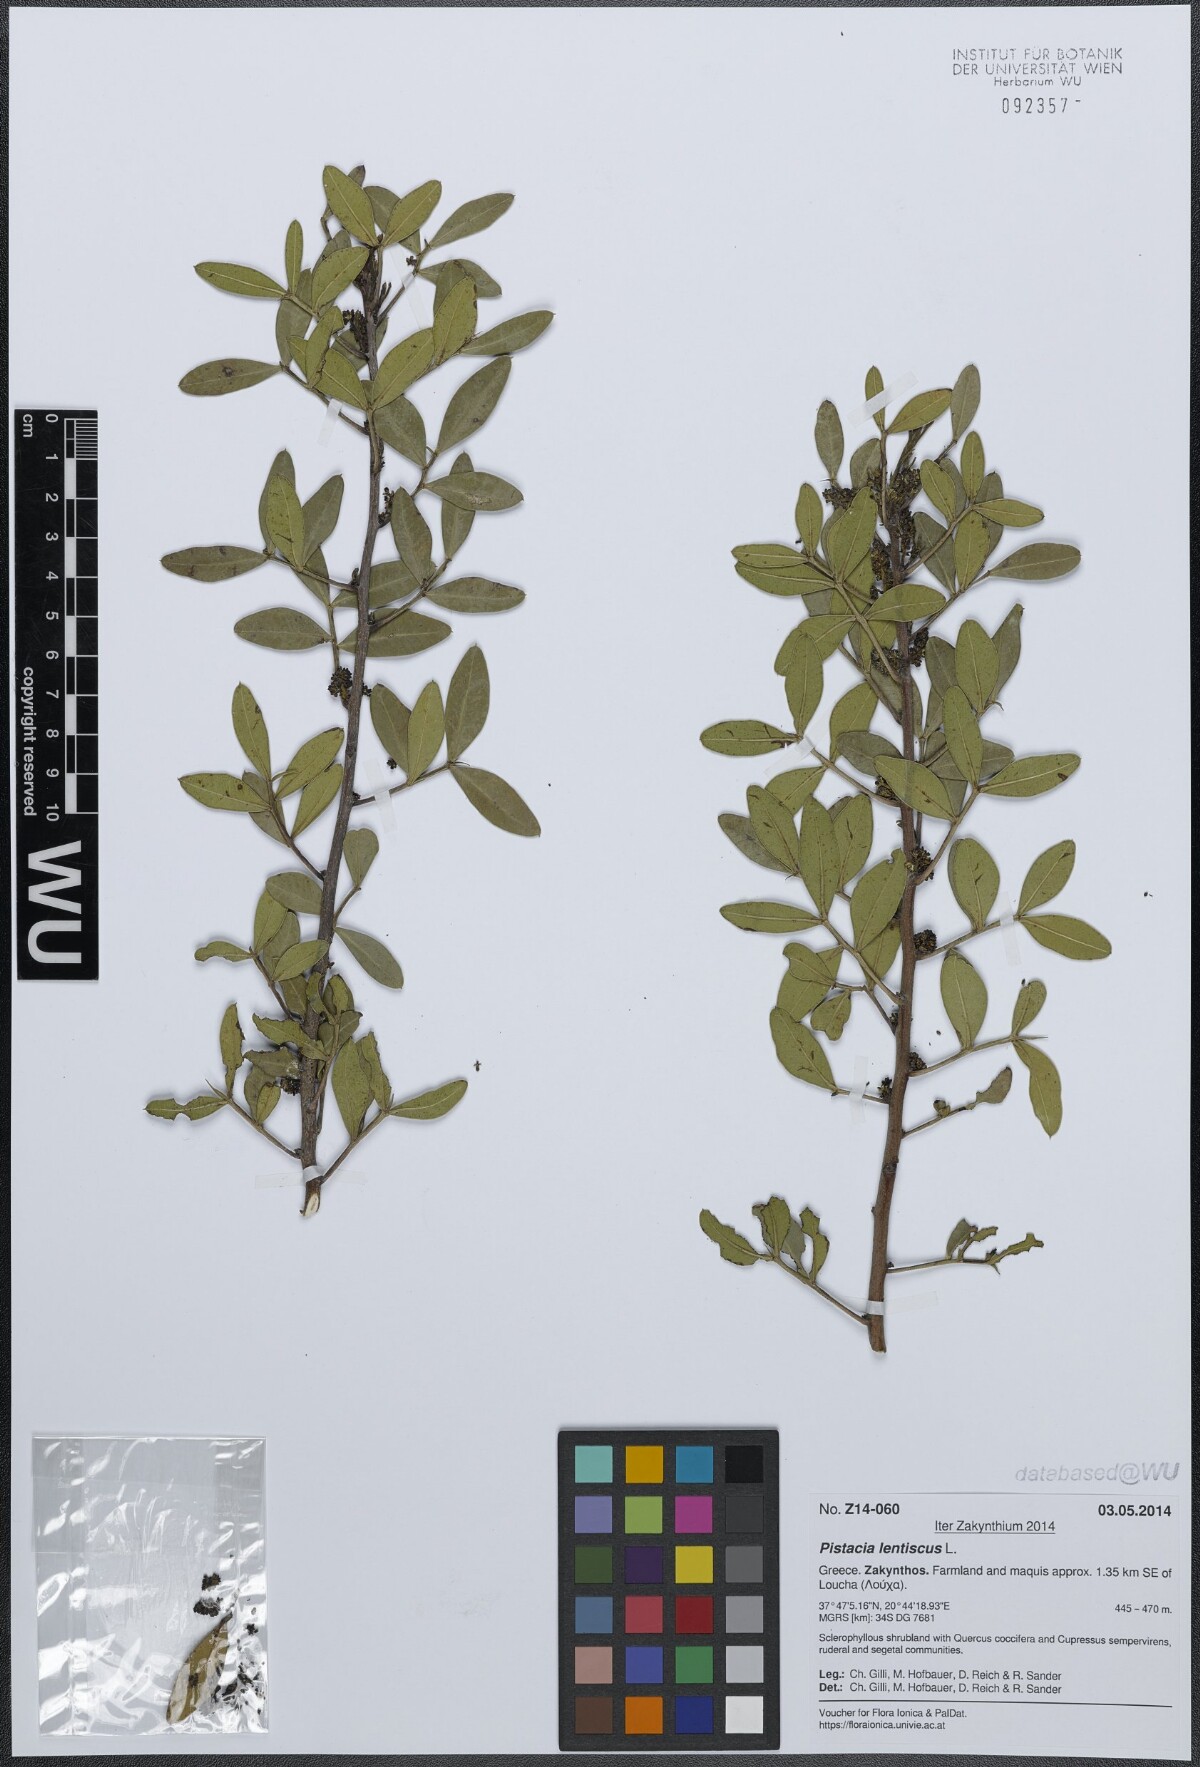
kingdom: Plantae
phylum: Tracheophyta
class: Magnoliopsida
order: Sapindales
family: Anacardiaceae
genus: Pistacia
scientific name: Pistacia lentiscus
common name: Lentisk
